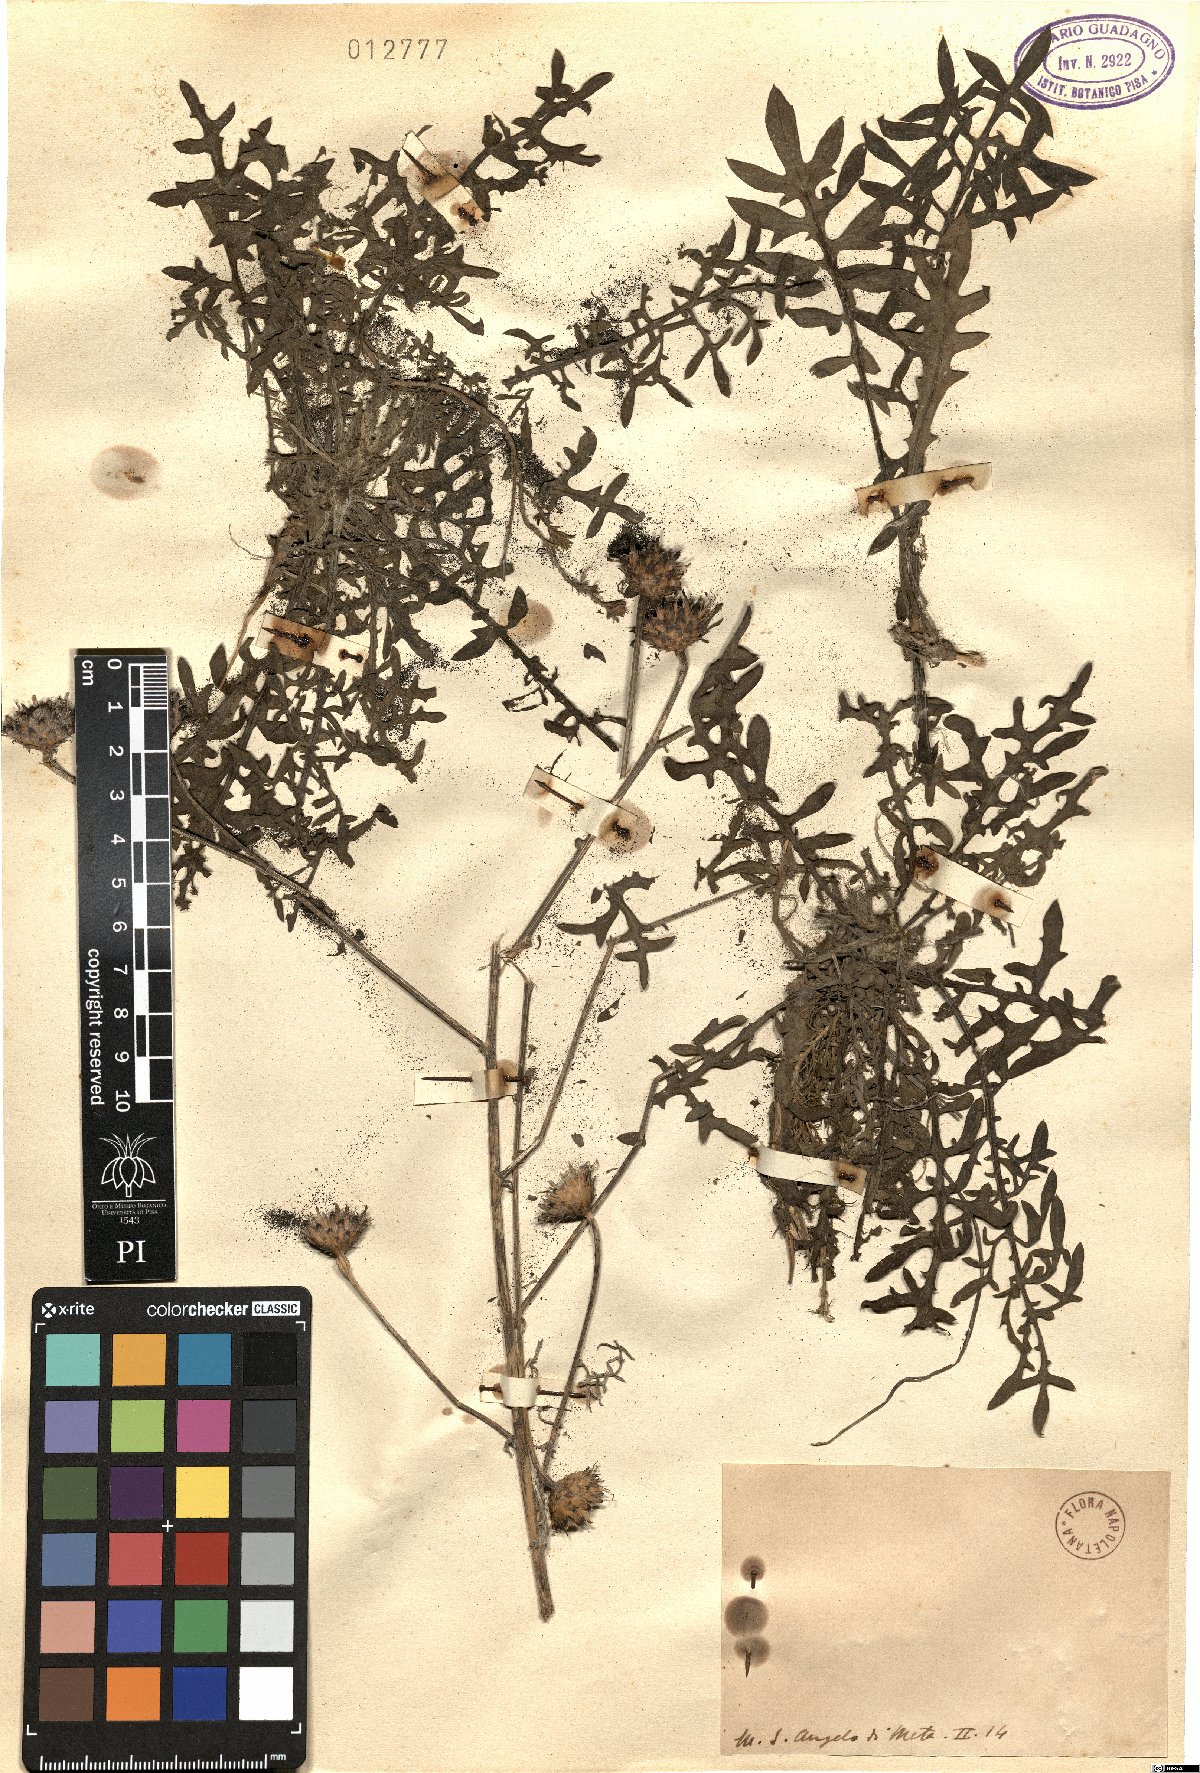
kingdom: Plantae
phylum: Tracheophyta
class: Magnoliopsida
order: Asterales
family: Asteraceae
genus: Centaurea
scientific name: Centaurea
